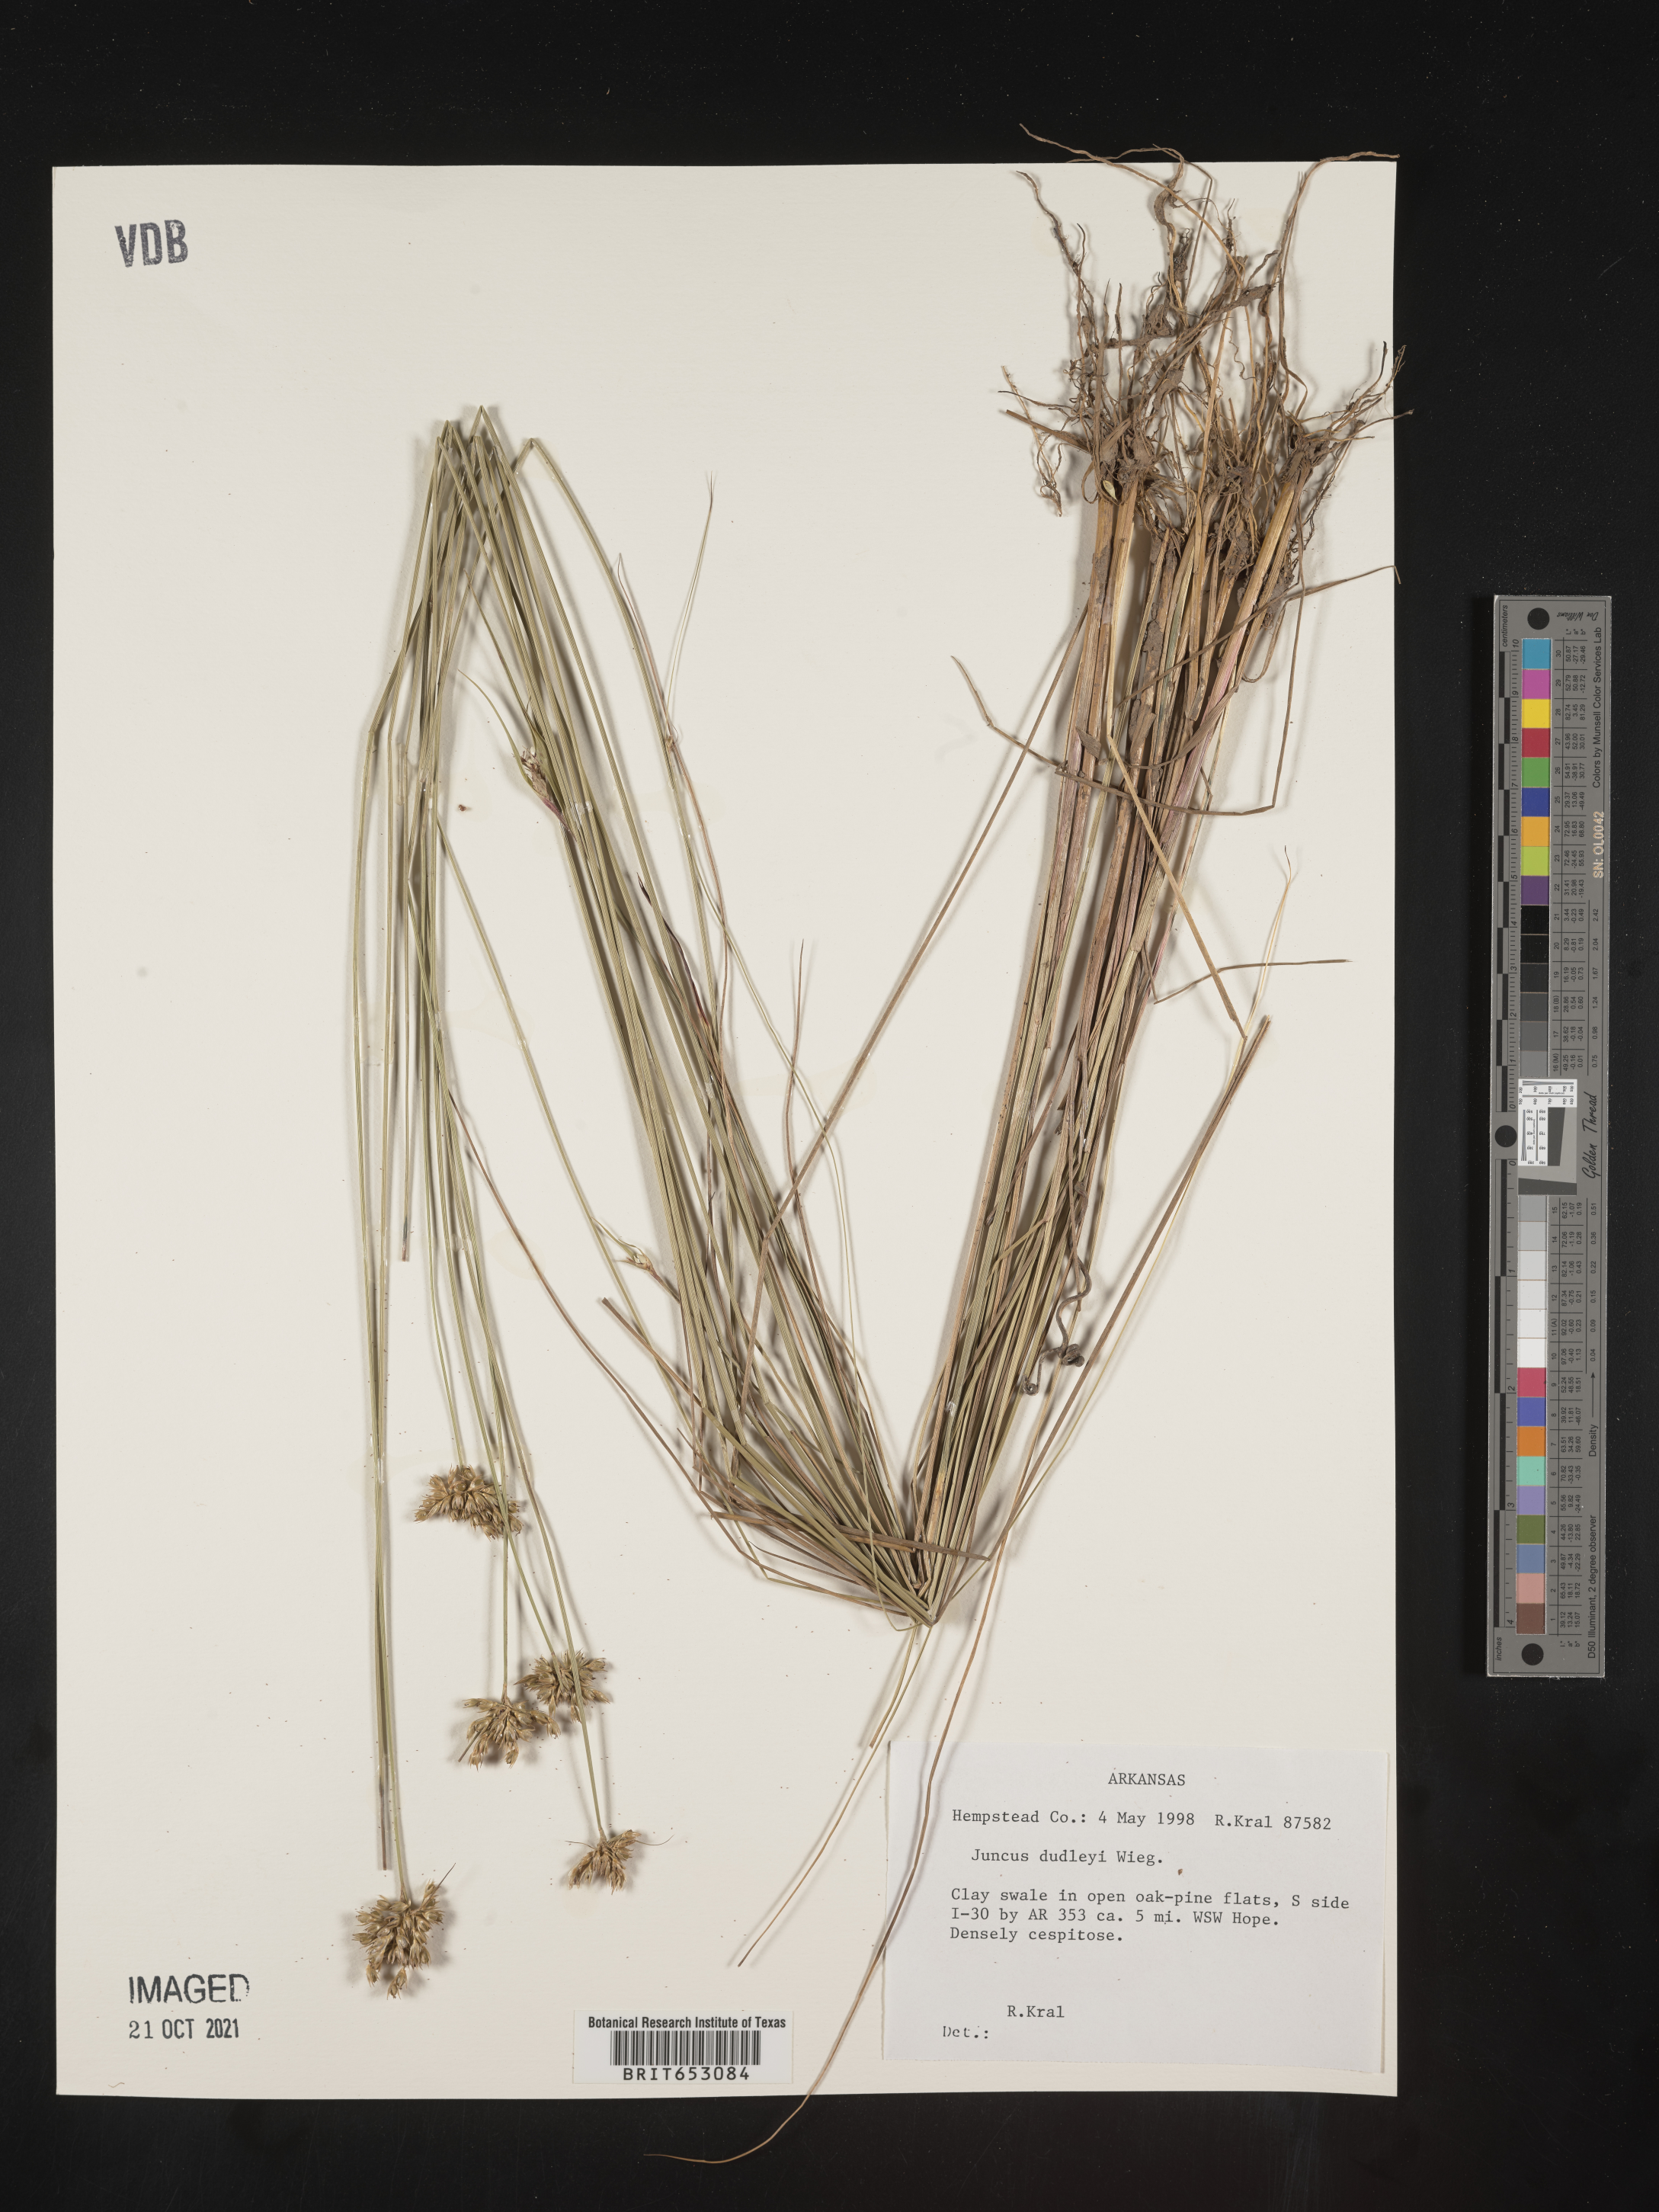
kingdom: Plantae
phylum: Tracheophyta
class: Liliopsida
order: Poales
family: Juncaceae
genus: Juncus
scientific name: Juncus dudleyi
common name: Dudley's rush
